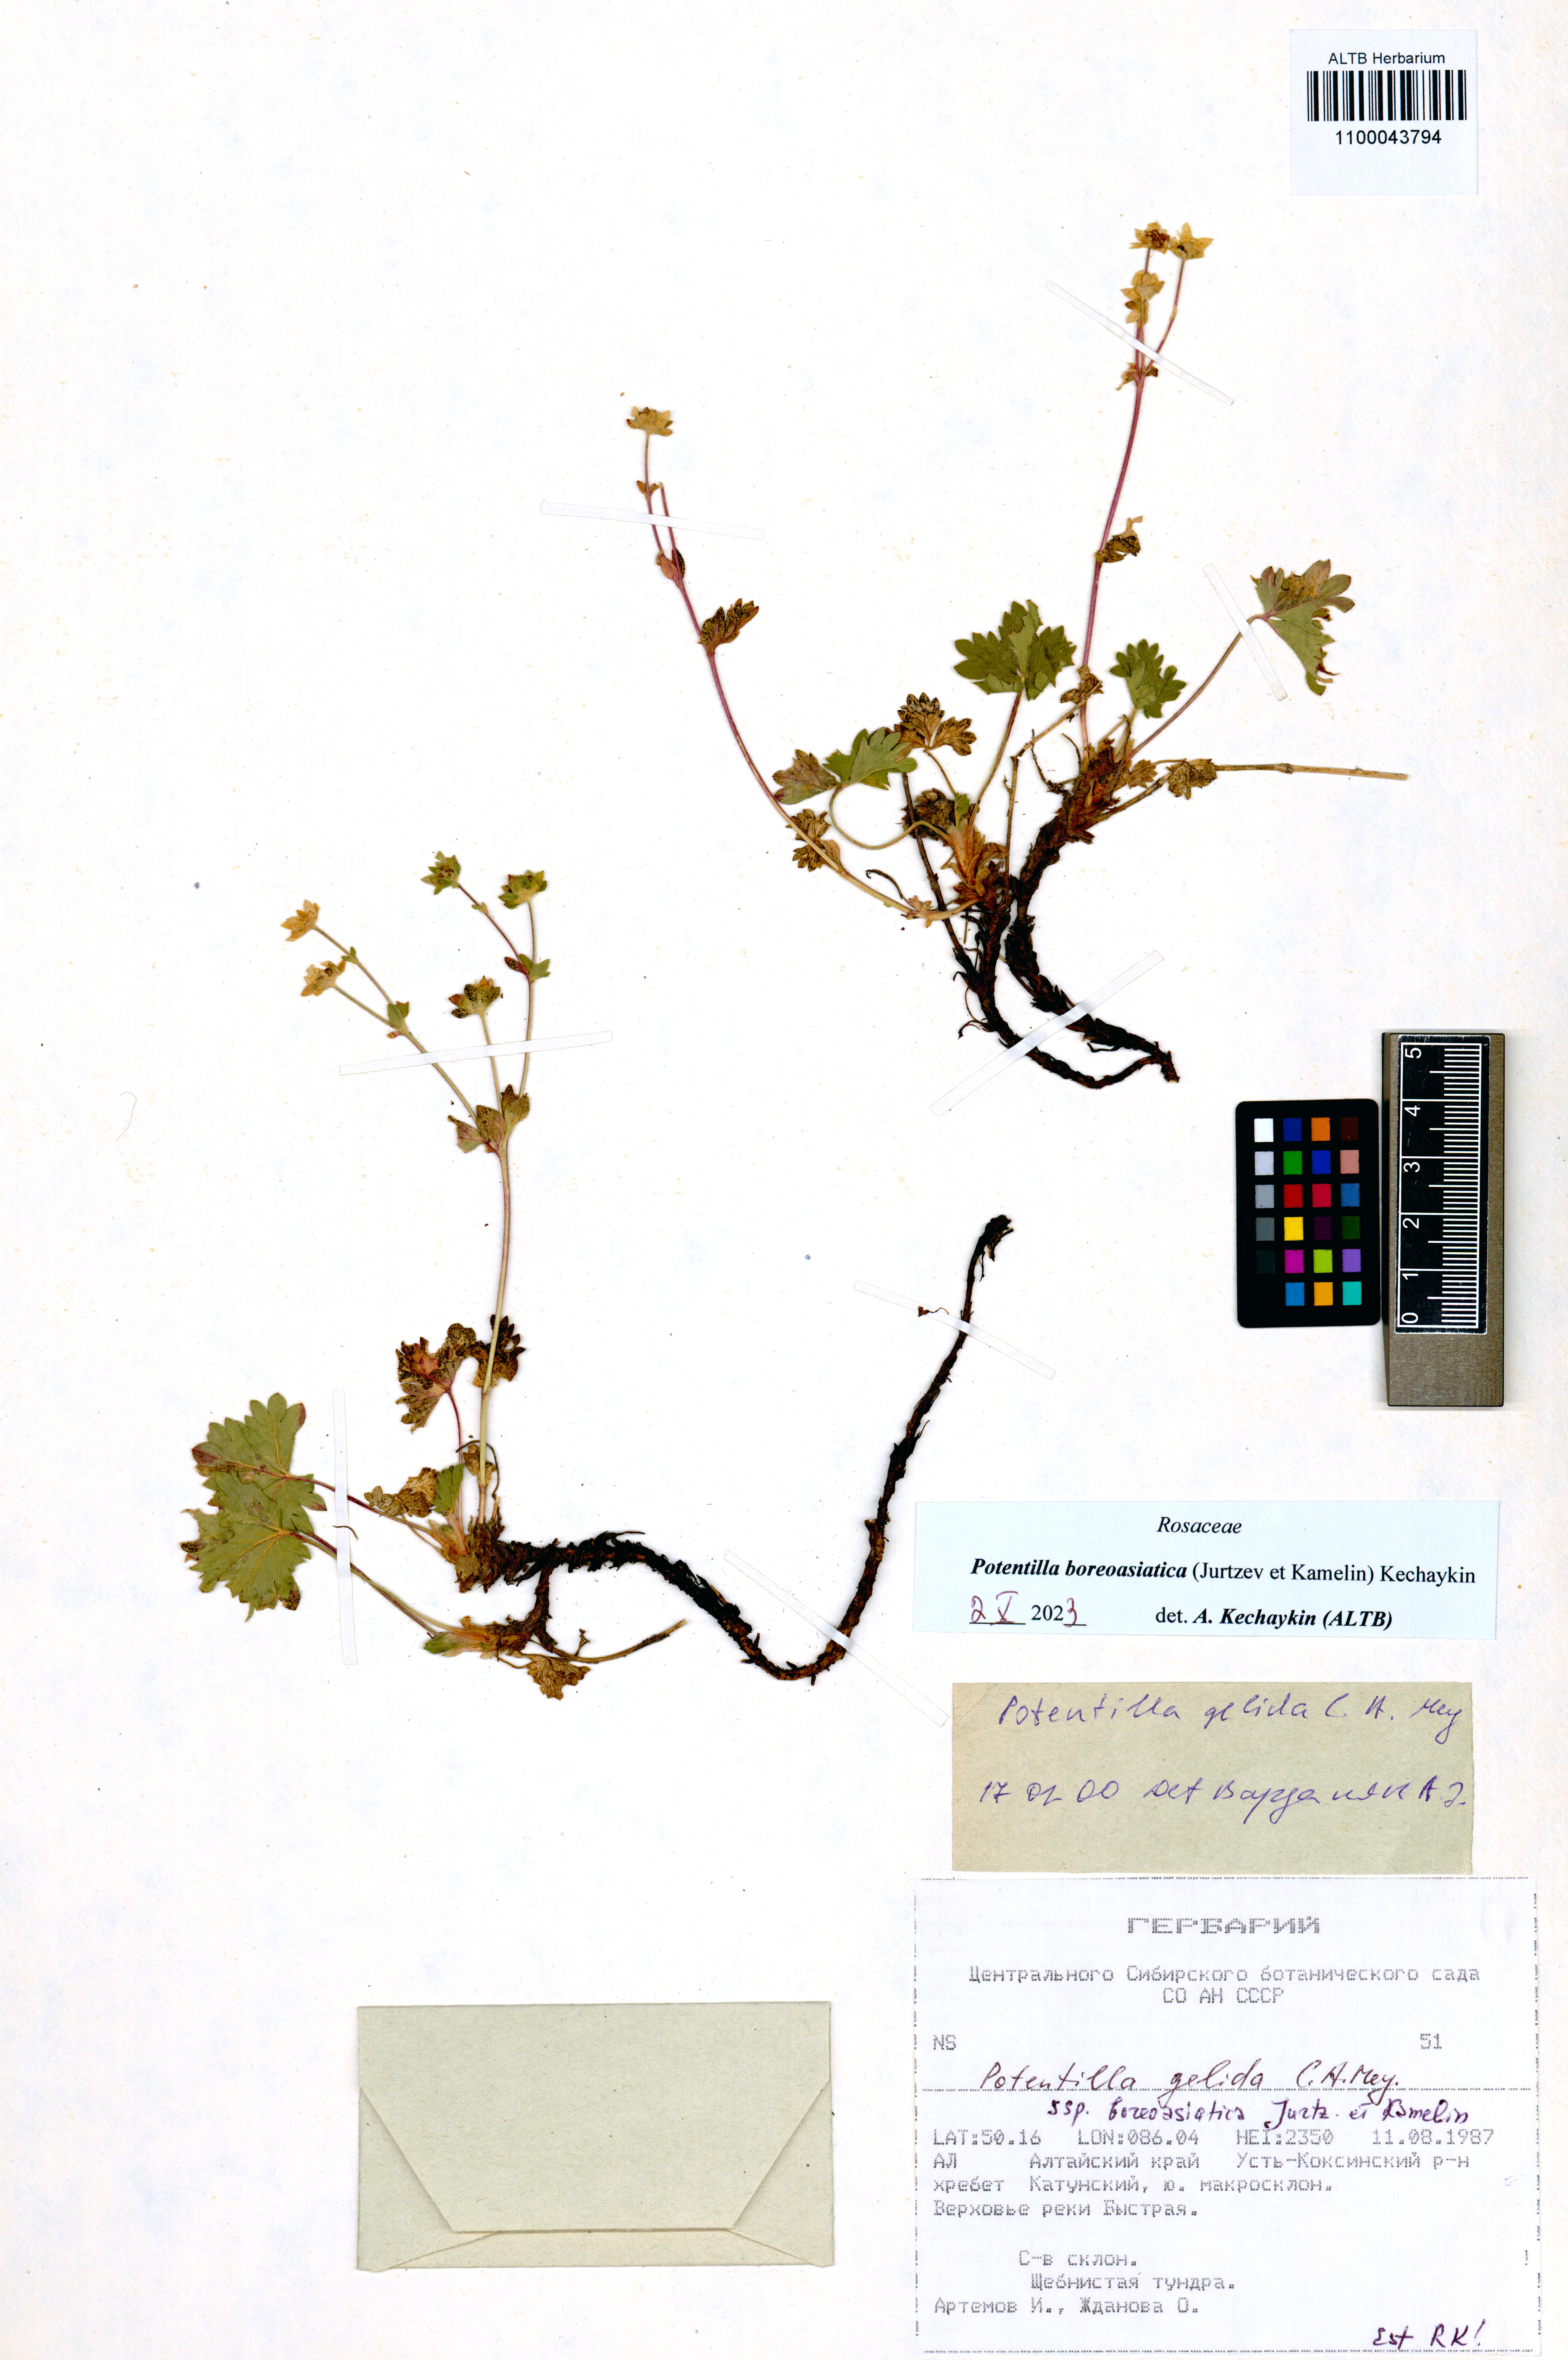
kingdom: Plantae
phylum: Tracheophyta
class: Magnoliopsida
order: Rosales
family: Rosaceae
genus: Potentilla
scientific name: Potentilla
